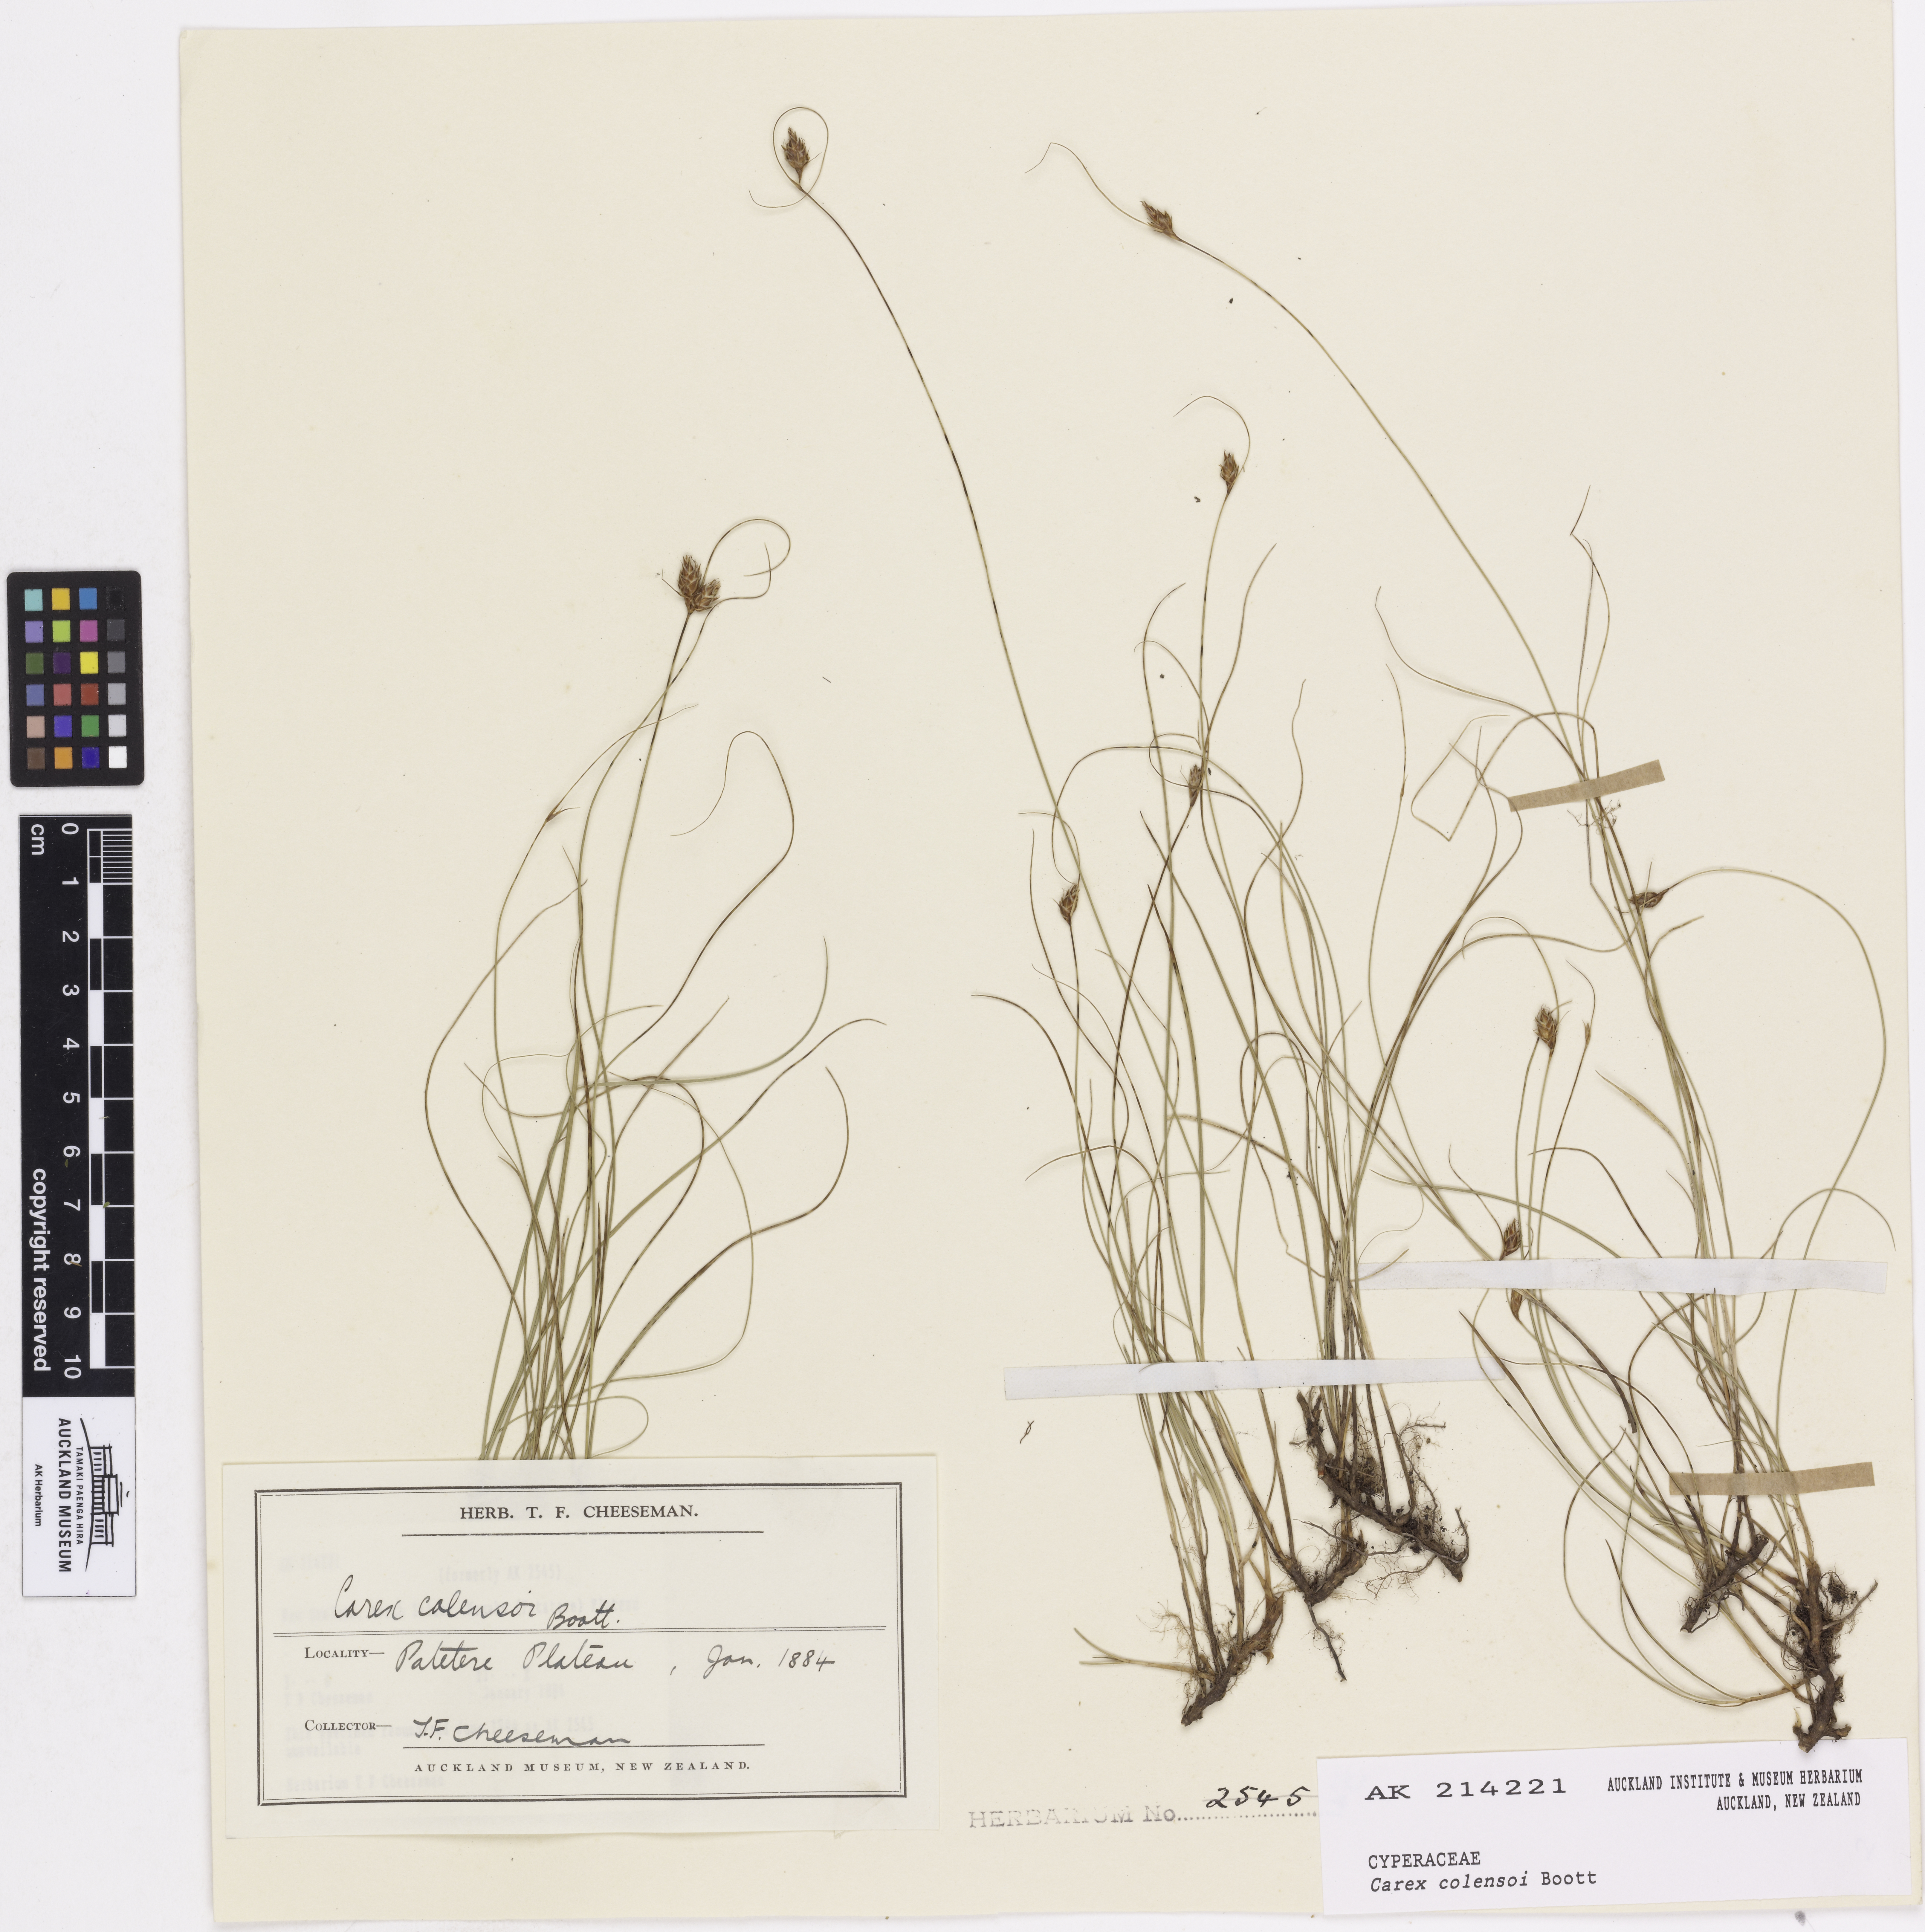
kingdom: Plantae
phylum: Tracheophyta
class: Liliopsida
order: Poales
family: Cyperaceae
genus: Carex
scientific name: Carex colensoi
